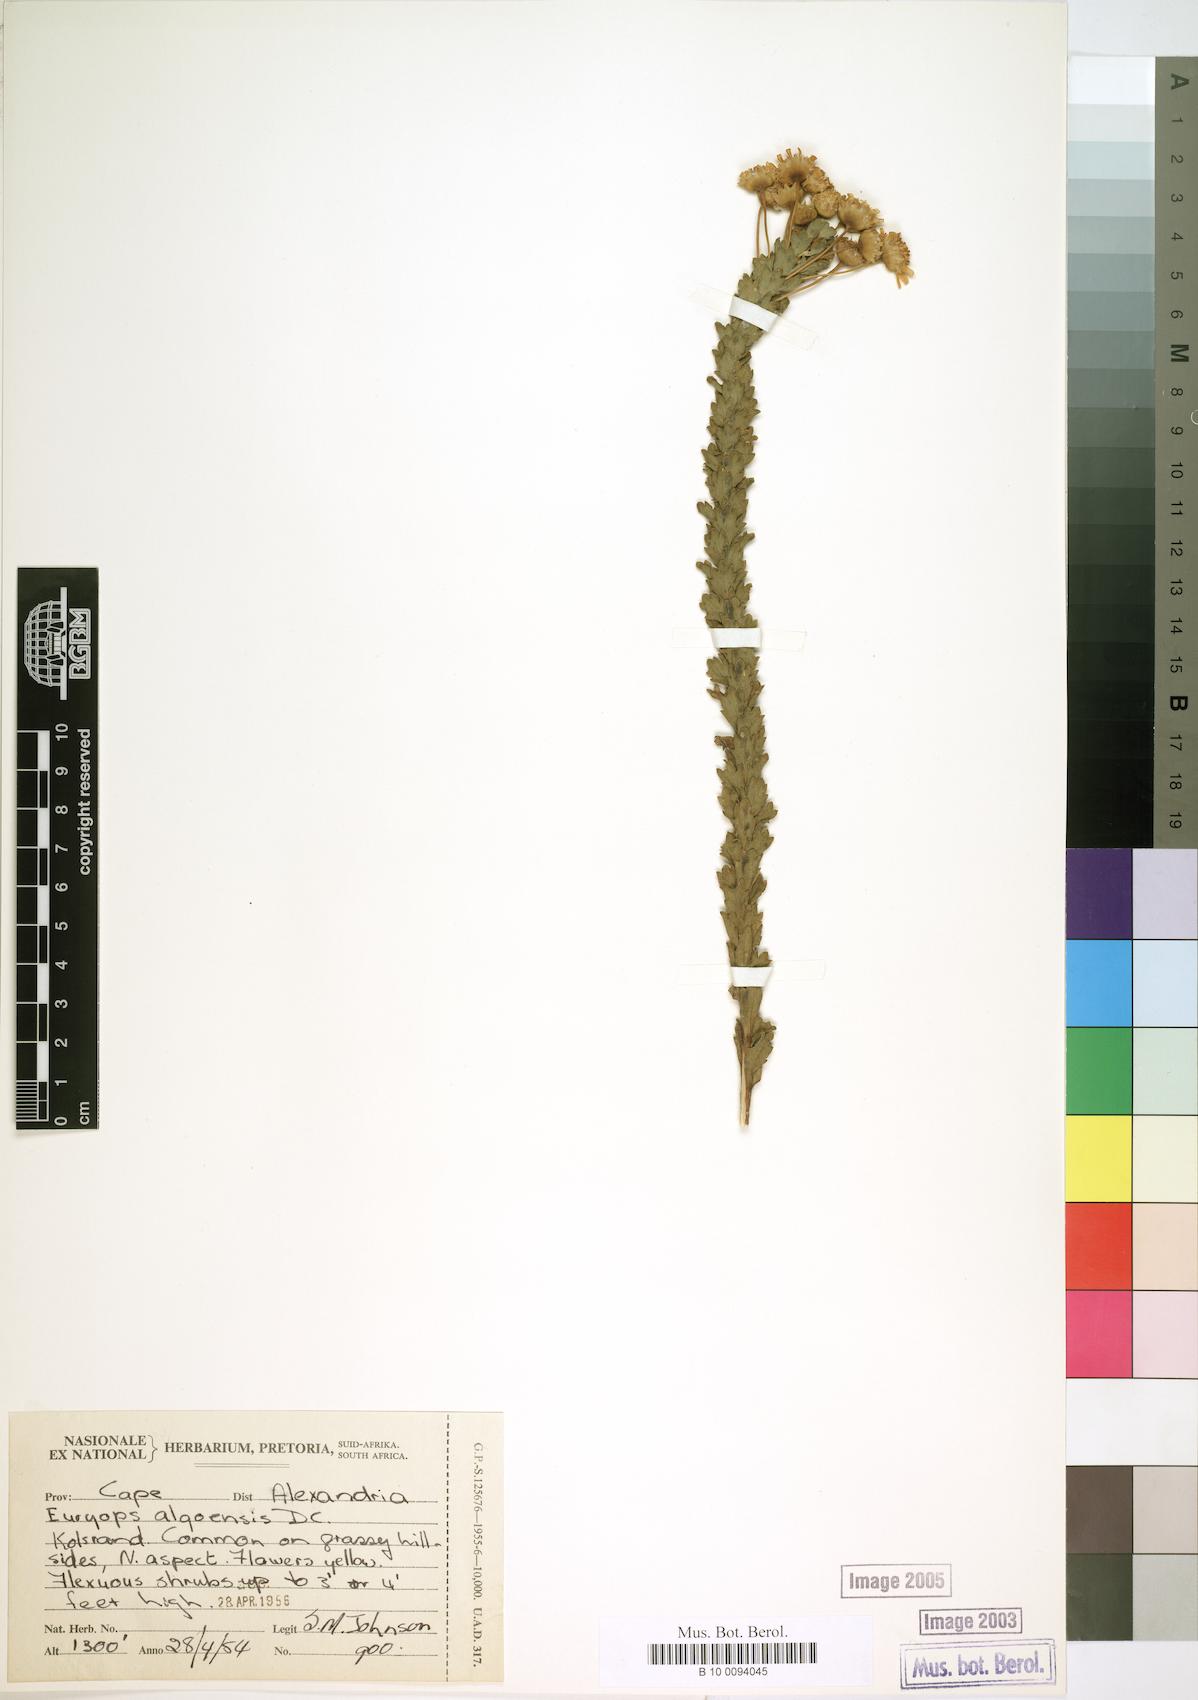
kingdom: Plantae
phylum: Tracheophyta
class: Magnoliopsida
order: Asterales
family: Asteraceae
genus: Euryops
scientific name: Euryops algoensis
